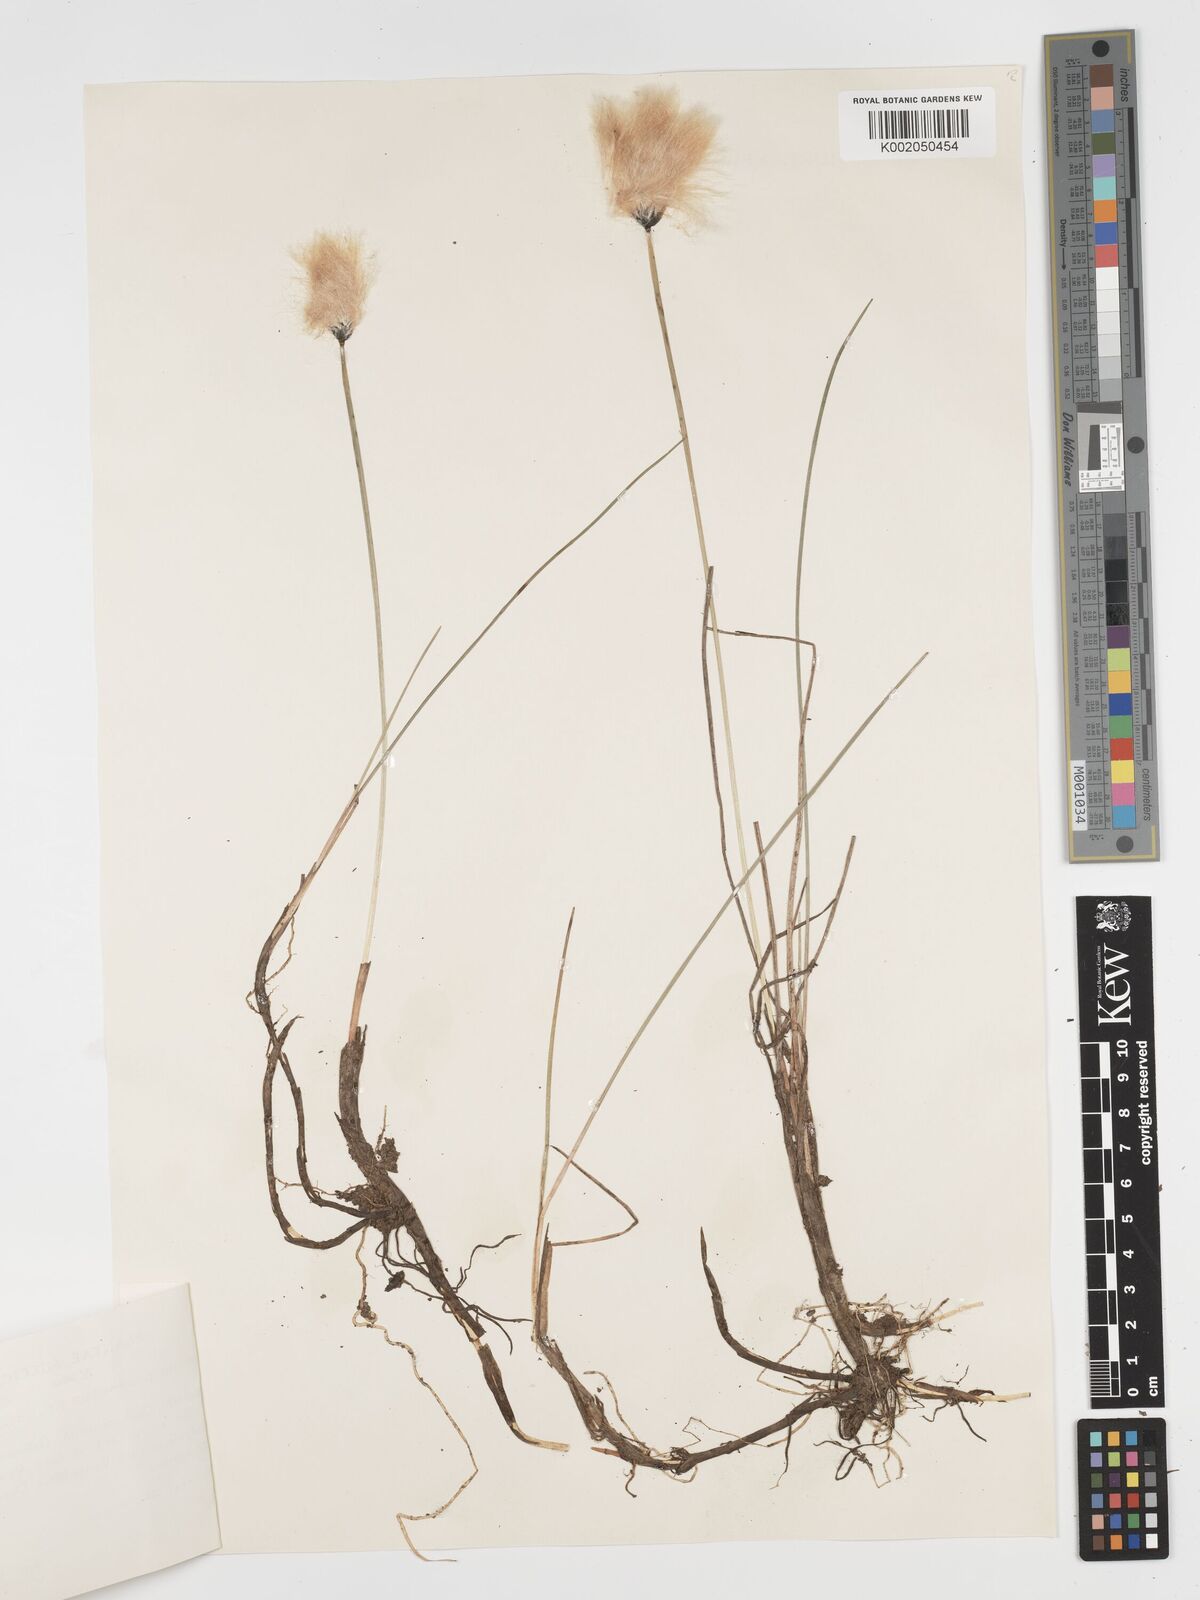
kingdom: Plantae
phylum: Tracheophyta
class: Liliopsida
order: Poales
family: Cyperaceae
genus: Eriophorum
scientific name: Eriophorum scheuchzeri
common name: Scheuchzer's cottongrass
